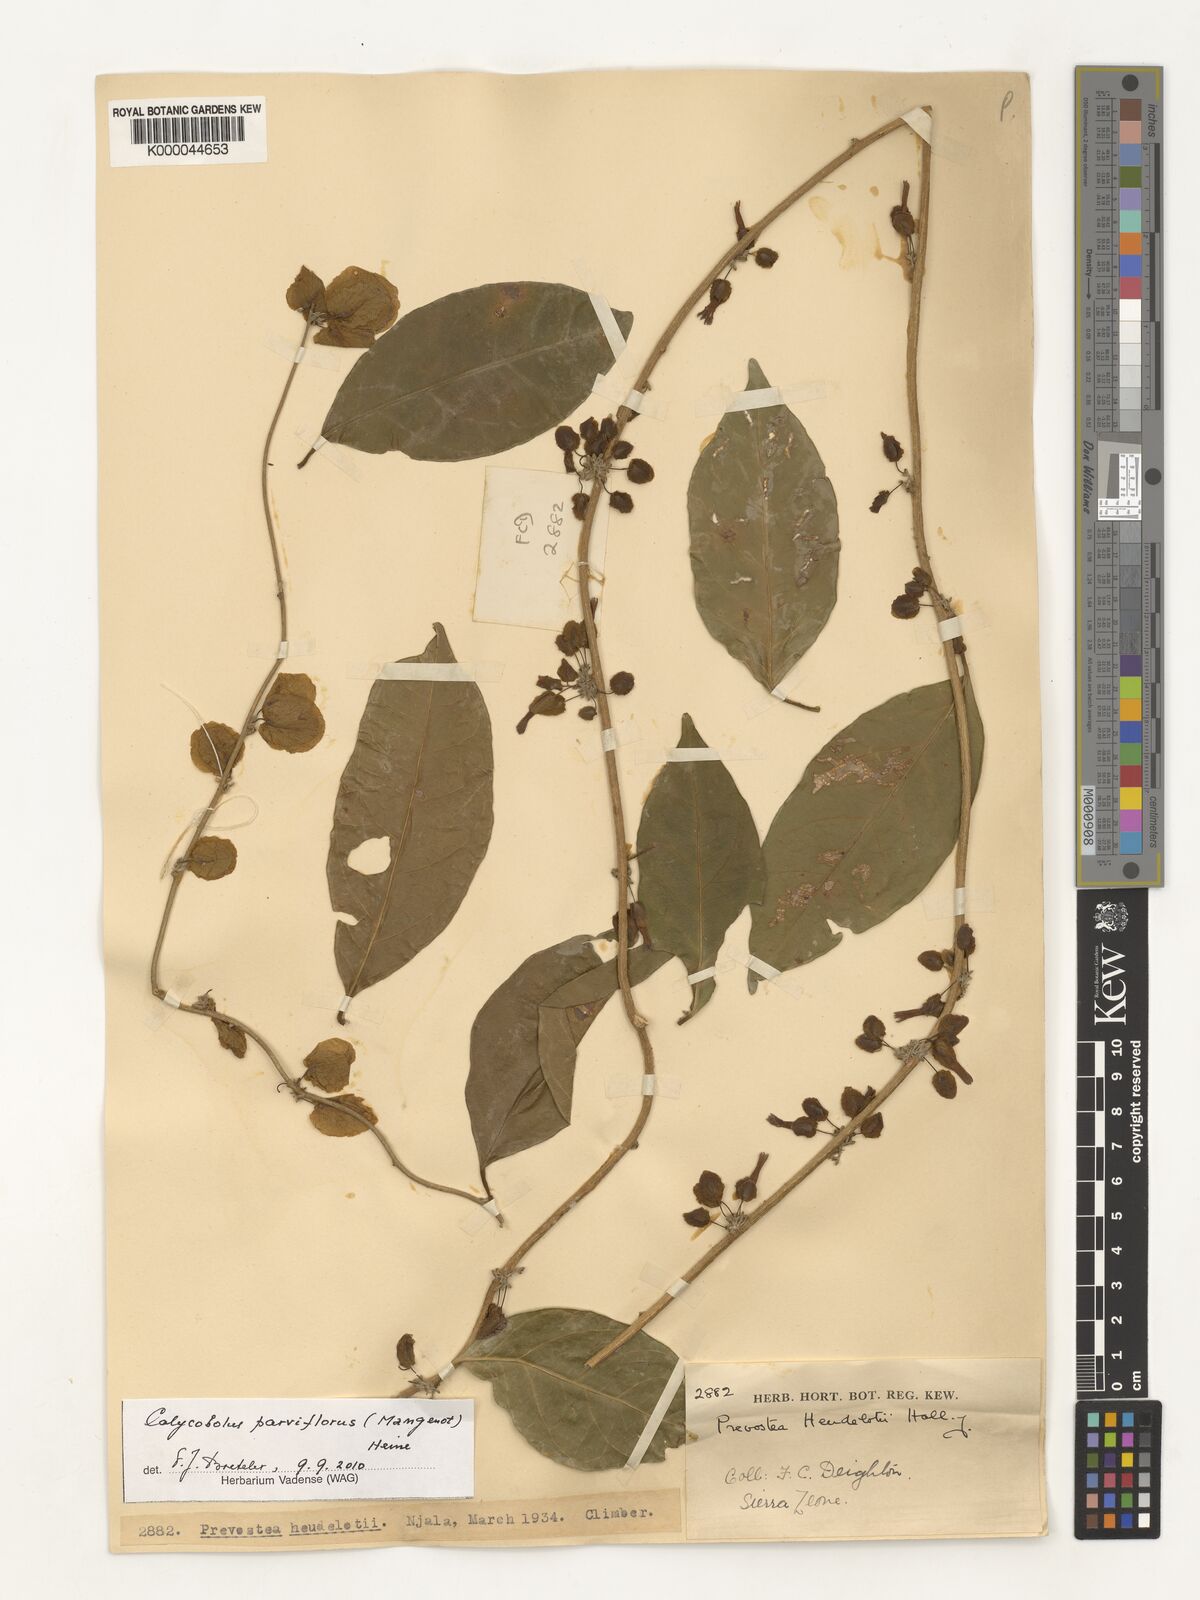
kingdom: Plantae
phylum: Tracheophyta
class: Magnoliopsida
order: Solanales
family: Convolvulaceae
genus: Calycobolus
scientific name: Calycobolus parviflorus
